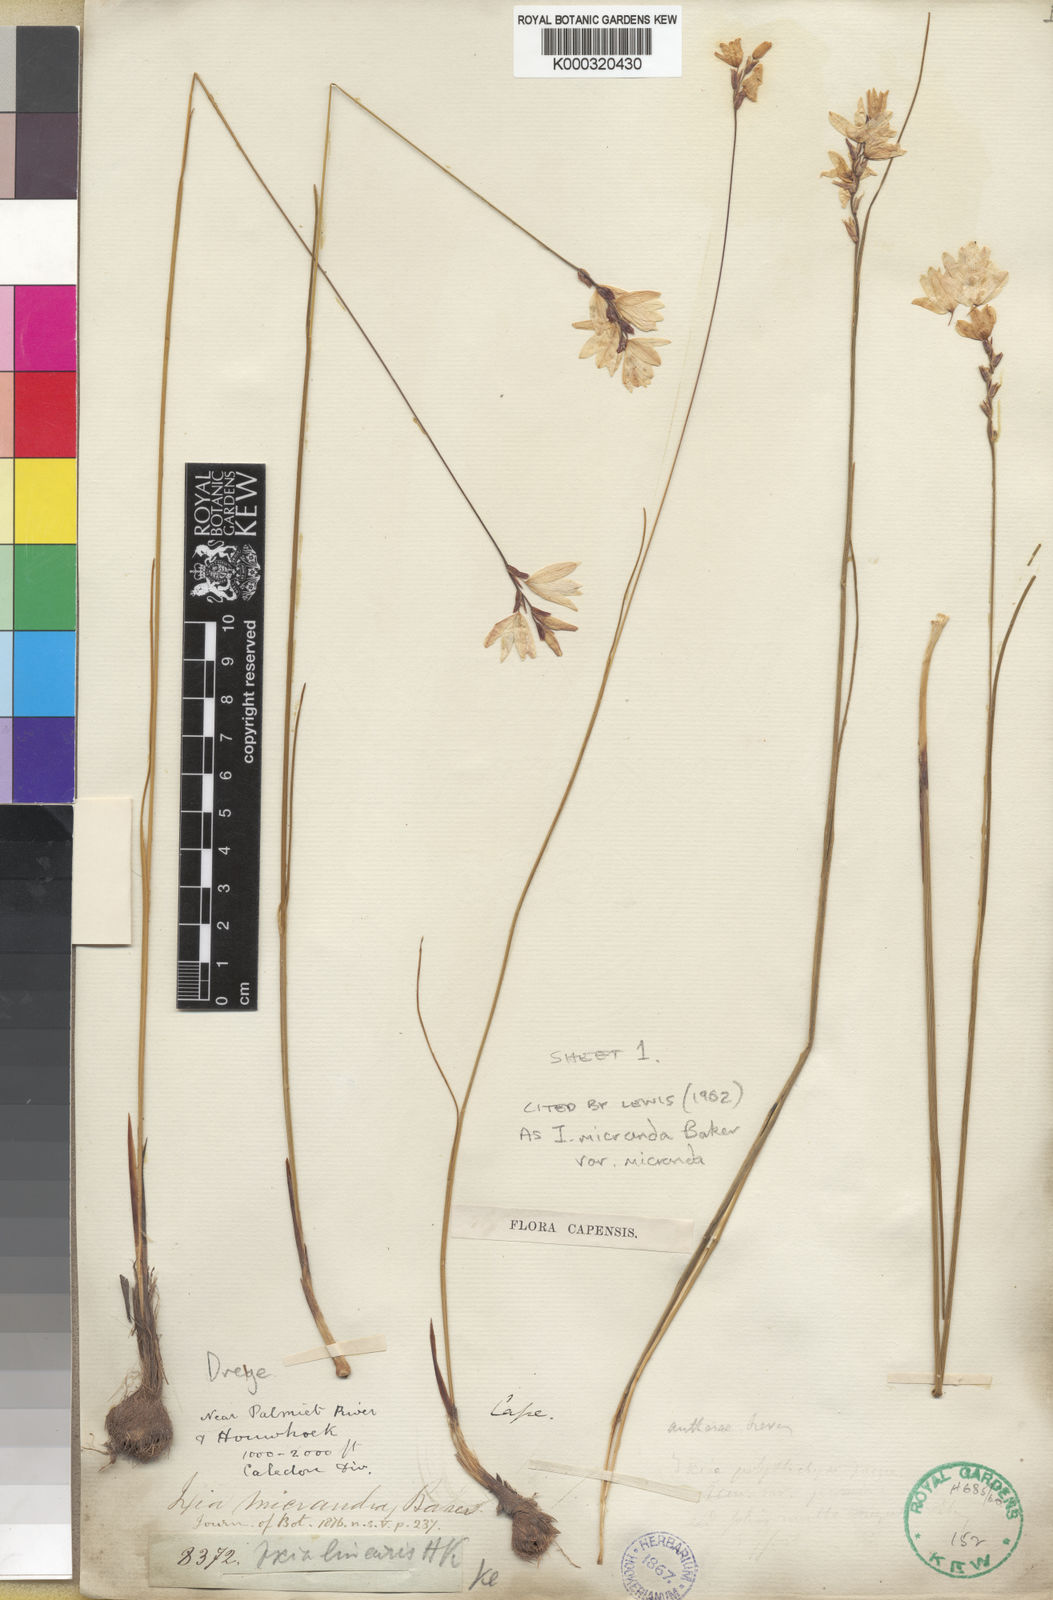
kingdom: Plantae
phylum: Tracheophyta
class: Liliopsida
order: Asparagales
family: Iridaceae
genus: Ixia
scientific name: Ixia micrandra
